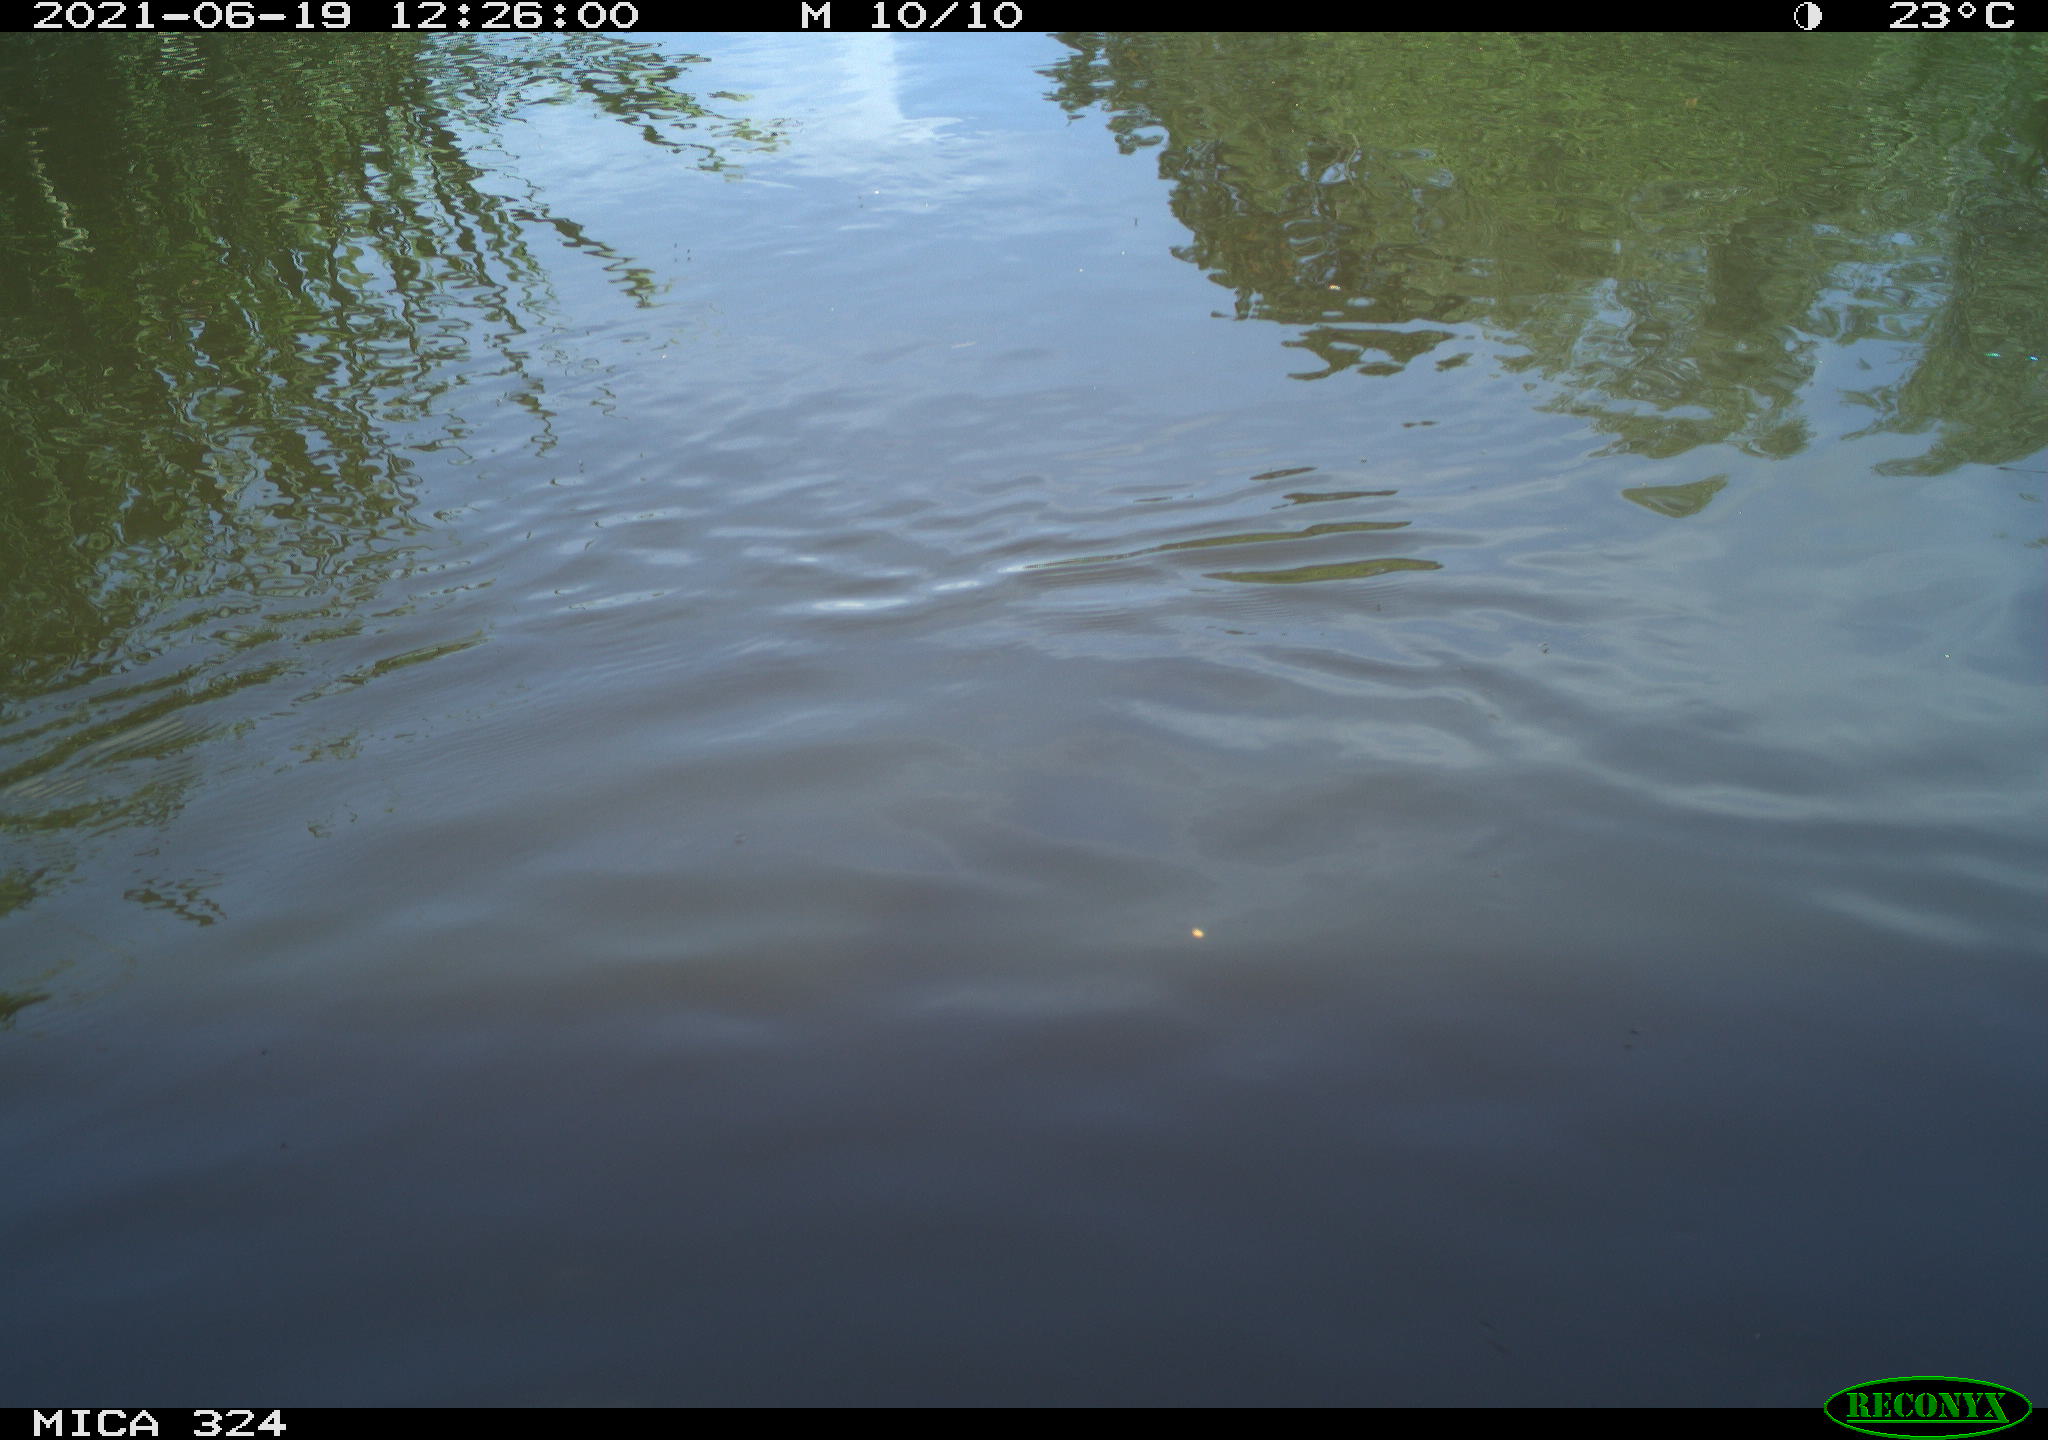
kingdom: Animalia
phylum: Chordata
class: Aves
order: Gruiformes
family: Rallidae
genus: Gallinula
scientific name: Gallinula chloropus
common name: Common moorhen
